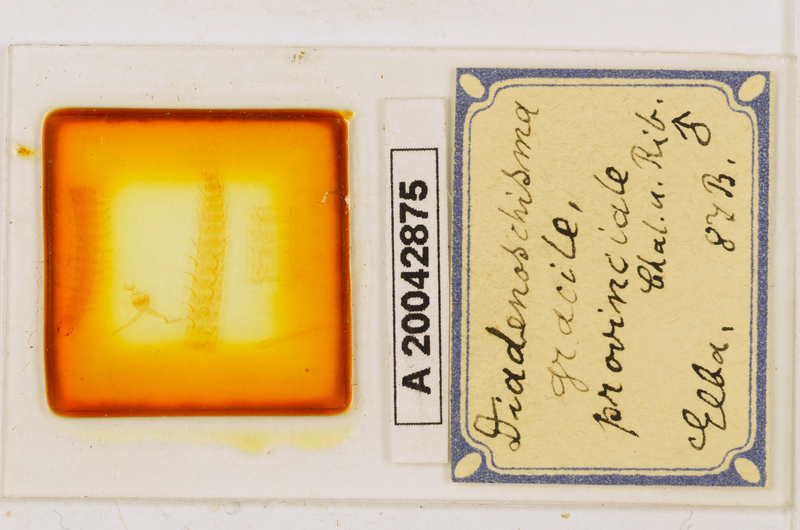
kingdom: Animalia
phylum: Arthropoda
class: Chilopoda
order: Geophilomorpha
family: Himantariidae
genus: Stigmatogaster
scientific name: Stigmatogaster
